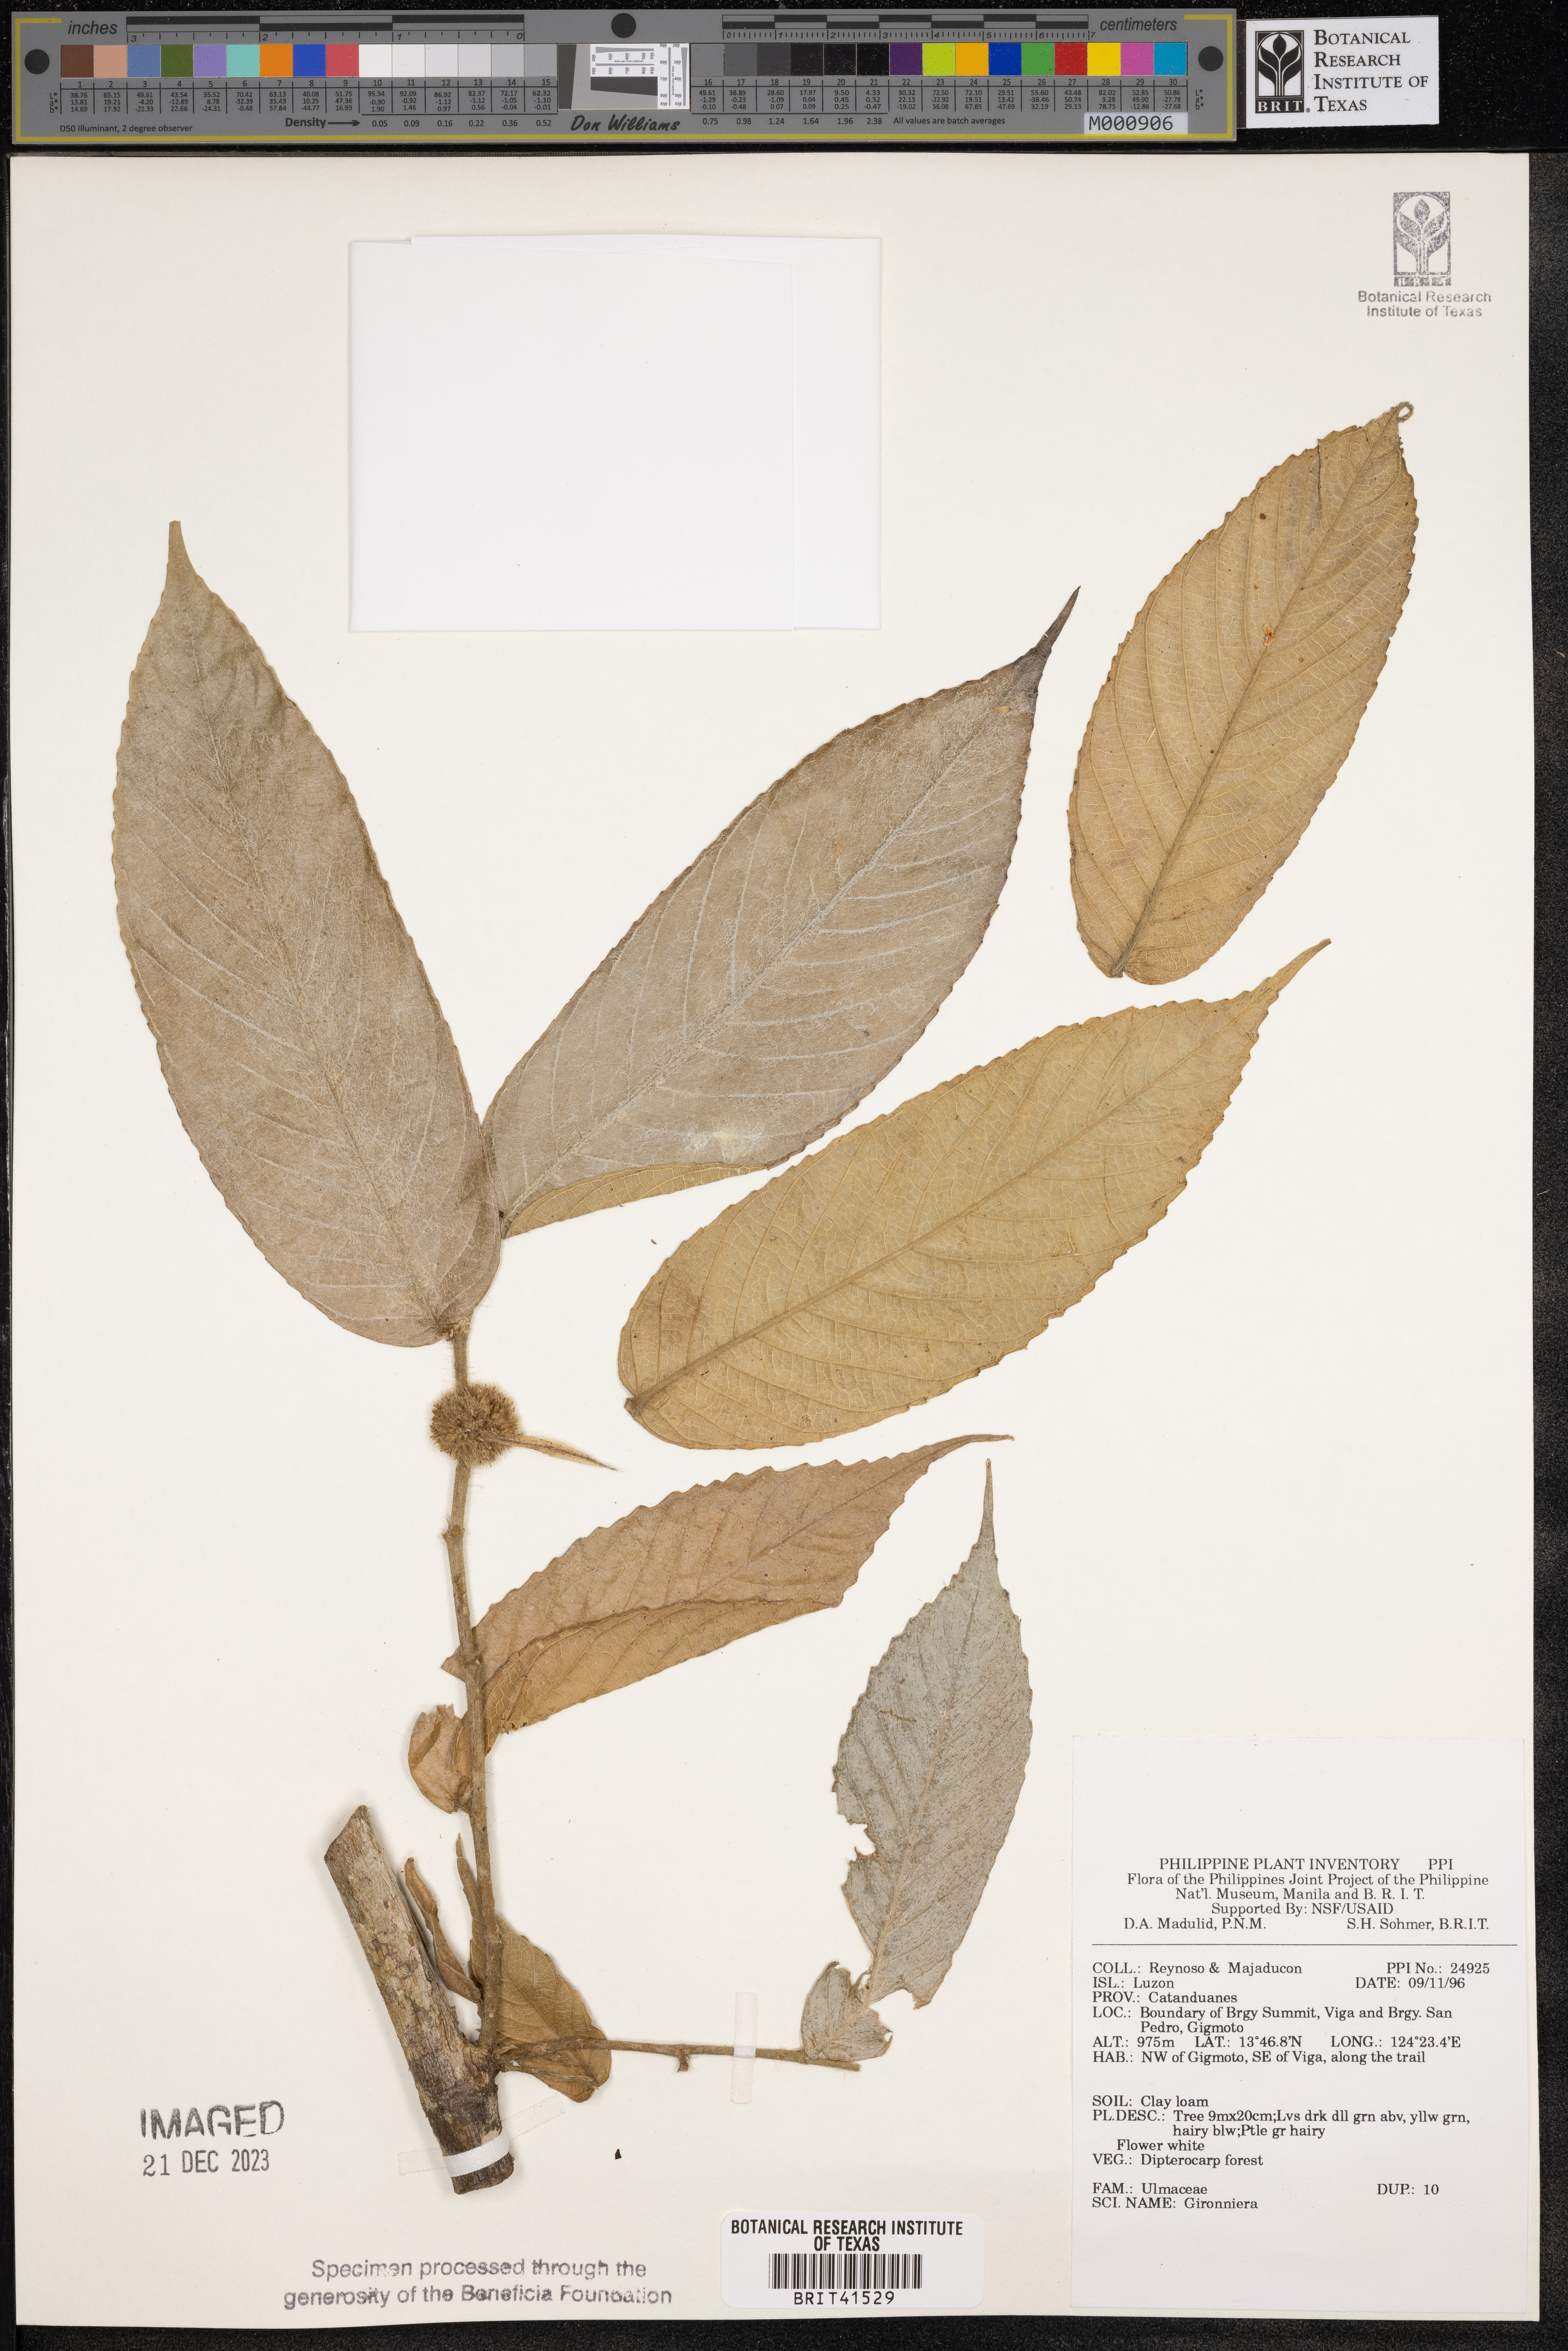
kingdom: Plantae
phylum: Tracheophyta
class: Magnoliopsida
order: Rosales
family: Cannabaceae
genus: Gironniera
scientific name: Gironniera
